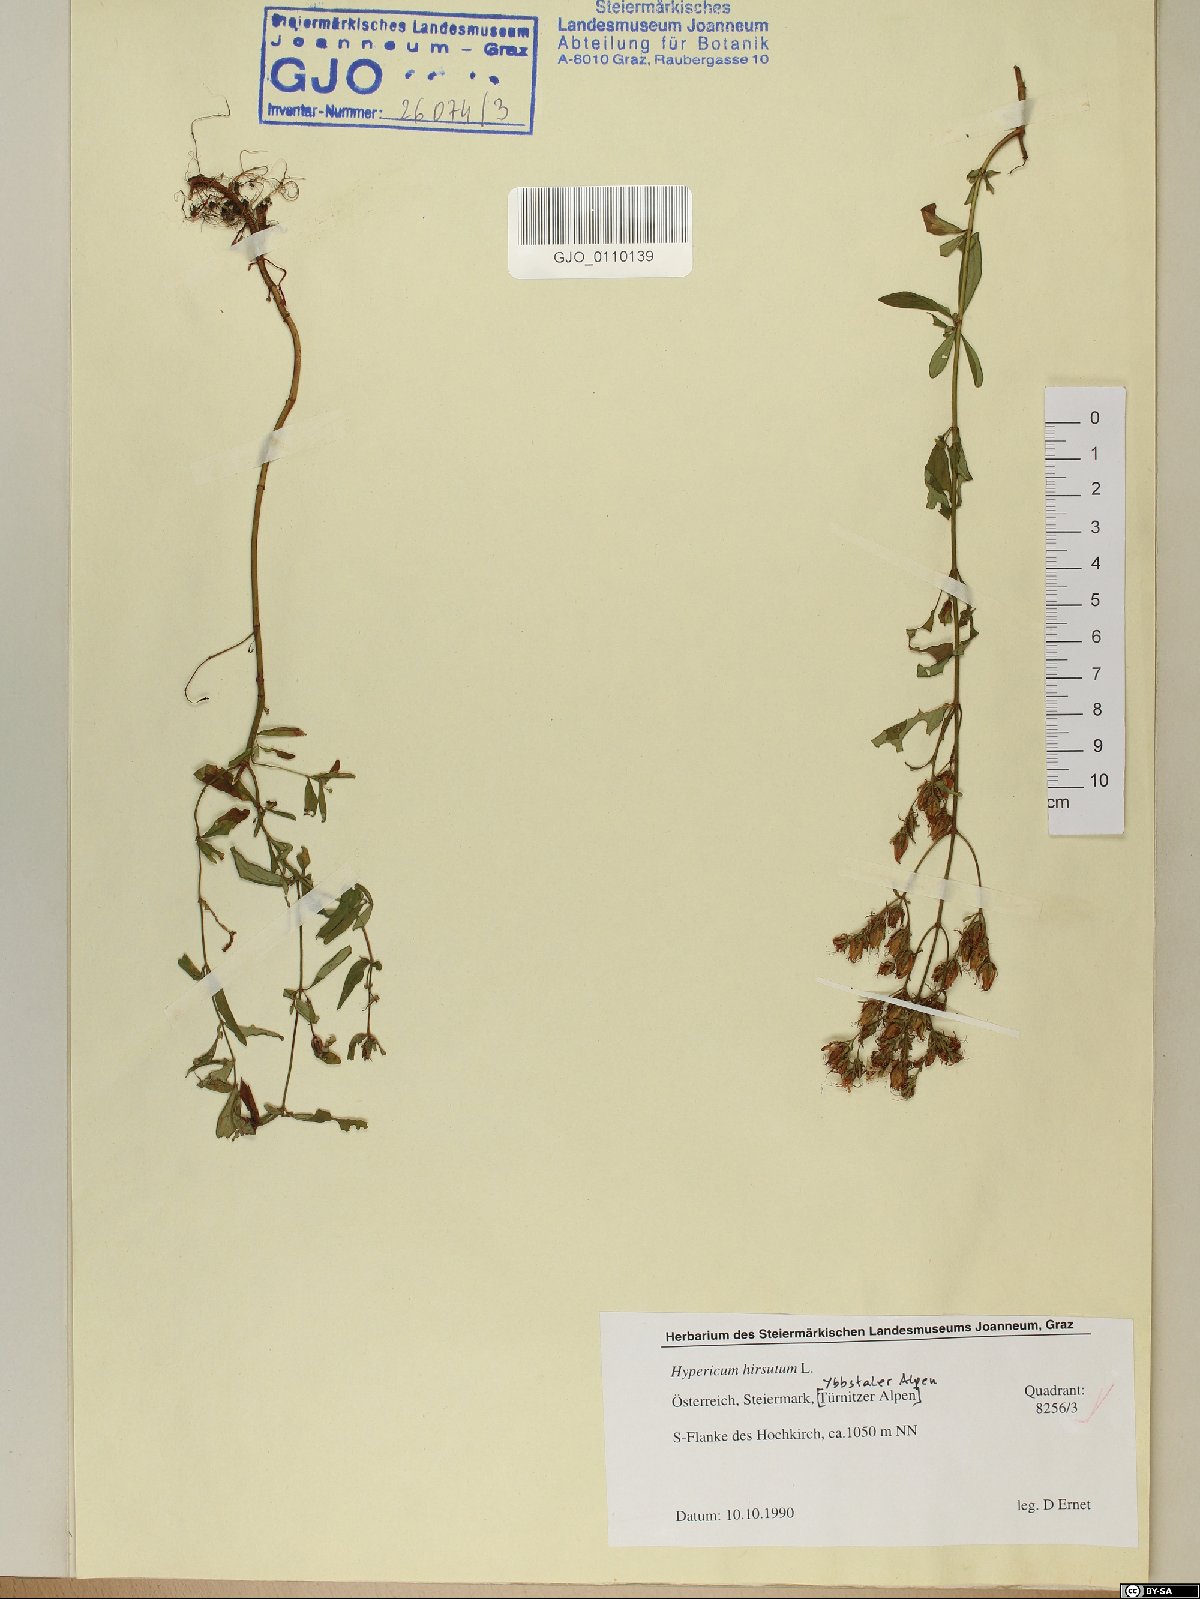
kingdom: Plantae
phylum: Tracheophyta
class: Magnoliopsida
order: Malpighiales
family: Hypericaceae
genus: Hypericum
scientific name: Hypericum hirsutum
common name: Hairy st. john's-wort
